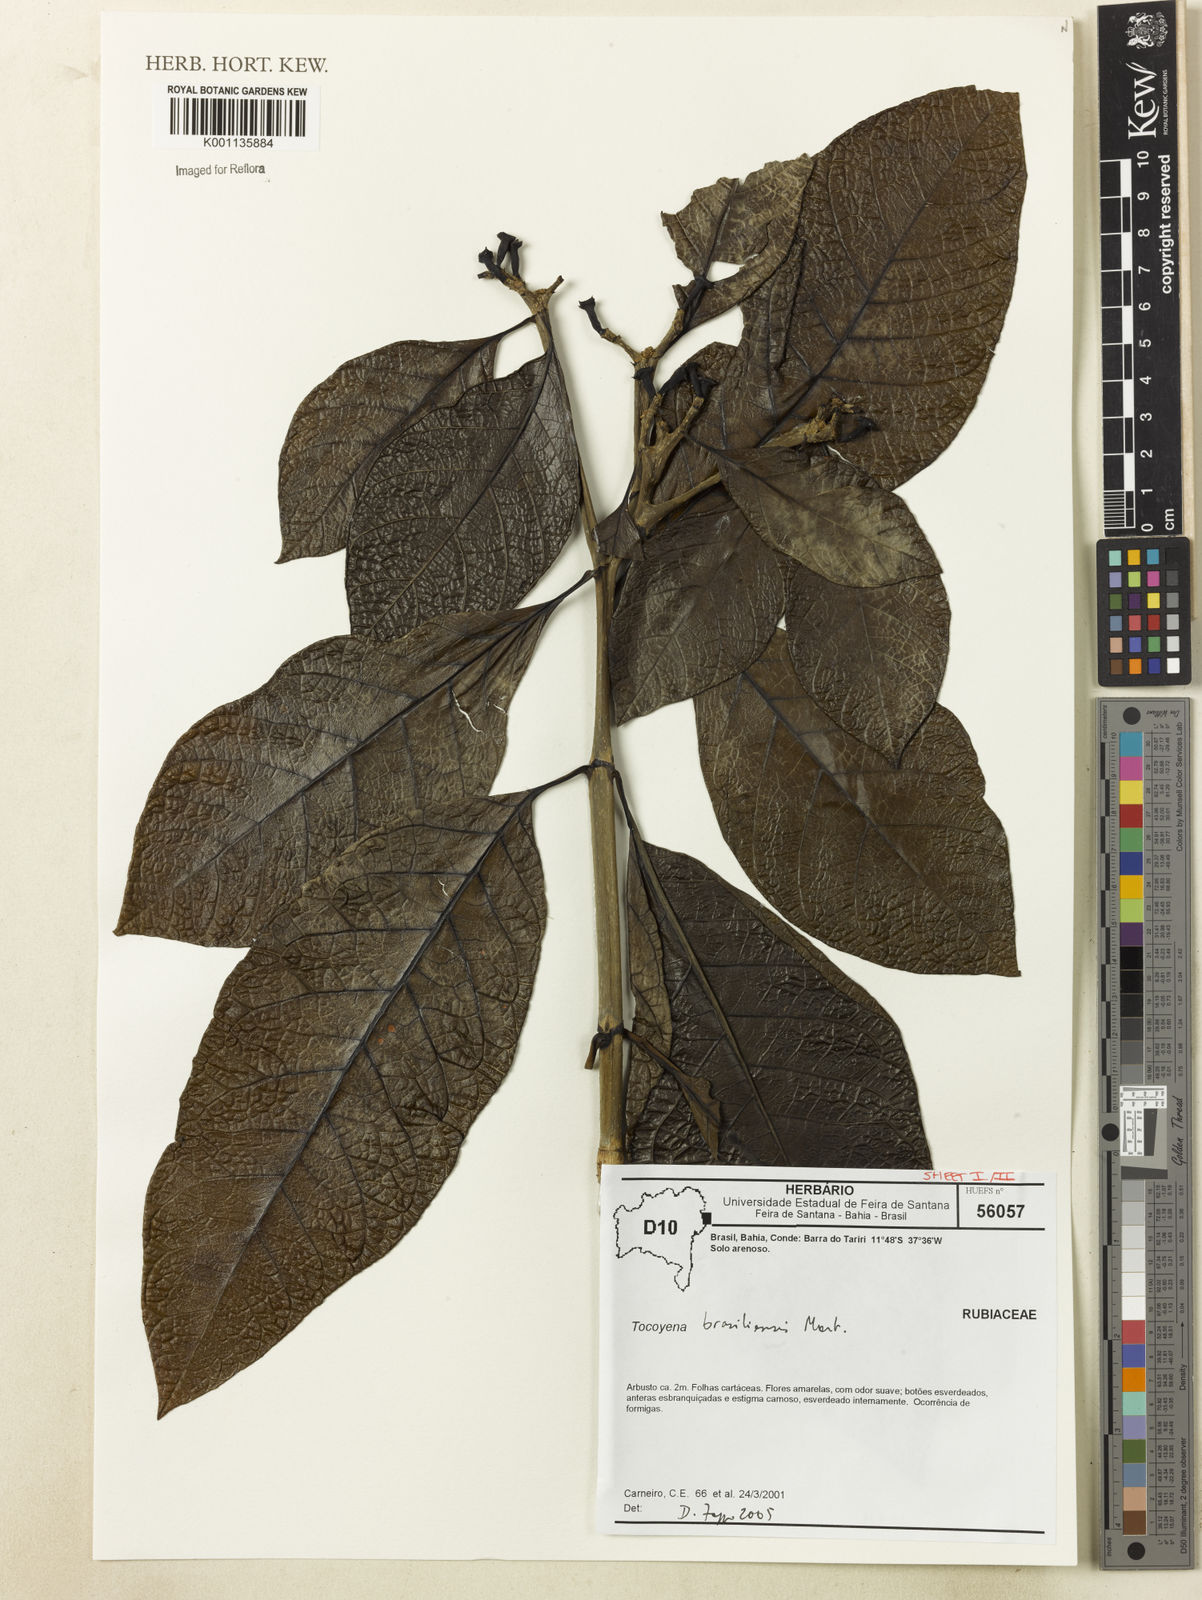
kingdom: Plantae
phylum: Tracheophyta
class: Magnoliopsida
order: Gentianales
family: Rubiaceae
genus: Tocoyena
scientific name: Tocoyena sprucei
